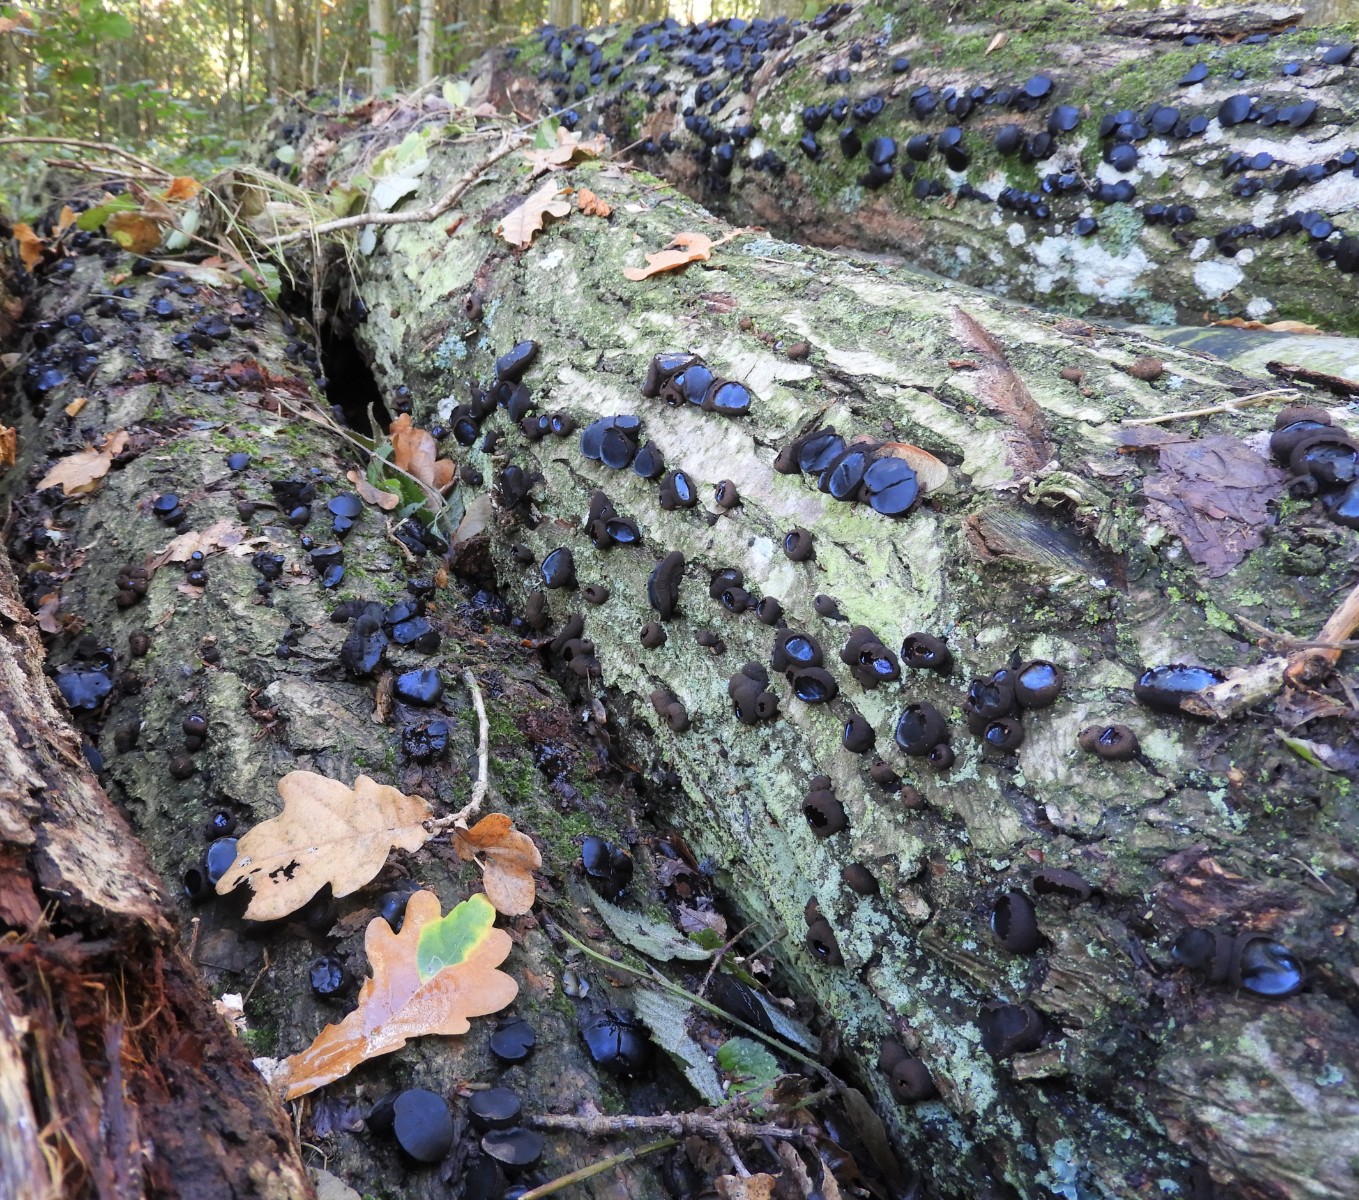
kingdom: Fungi
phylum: Ascomycota
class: Leotiomycetes
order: Phacidiales
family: Phacidiaceae
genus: Bulgaria
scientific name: Bulgaria inquinans
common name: afsmittende topsvamp
